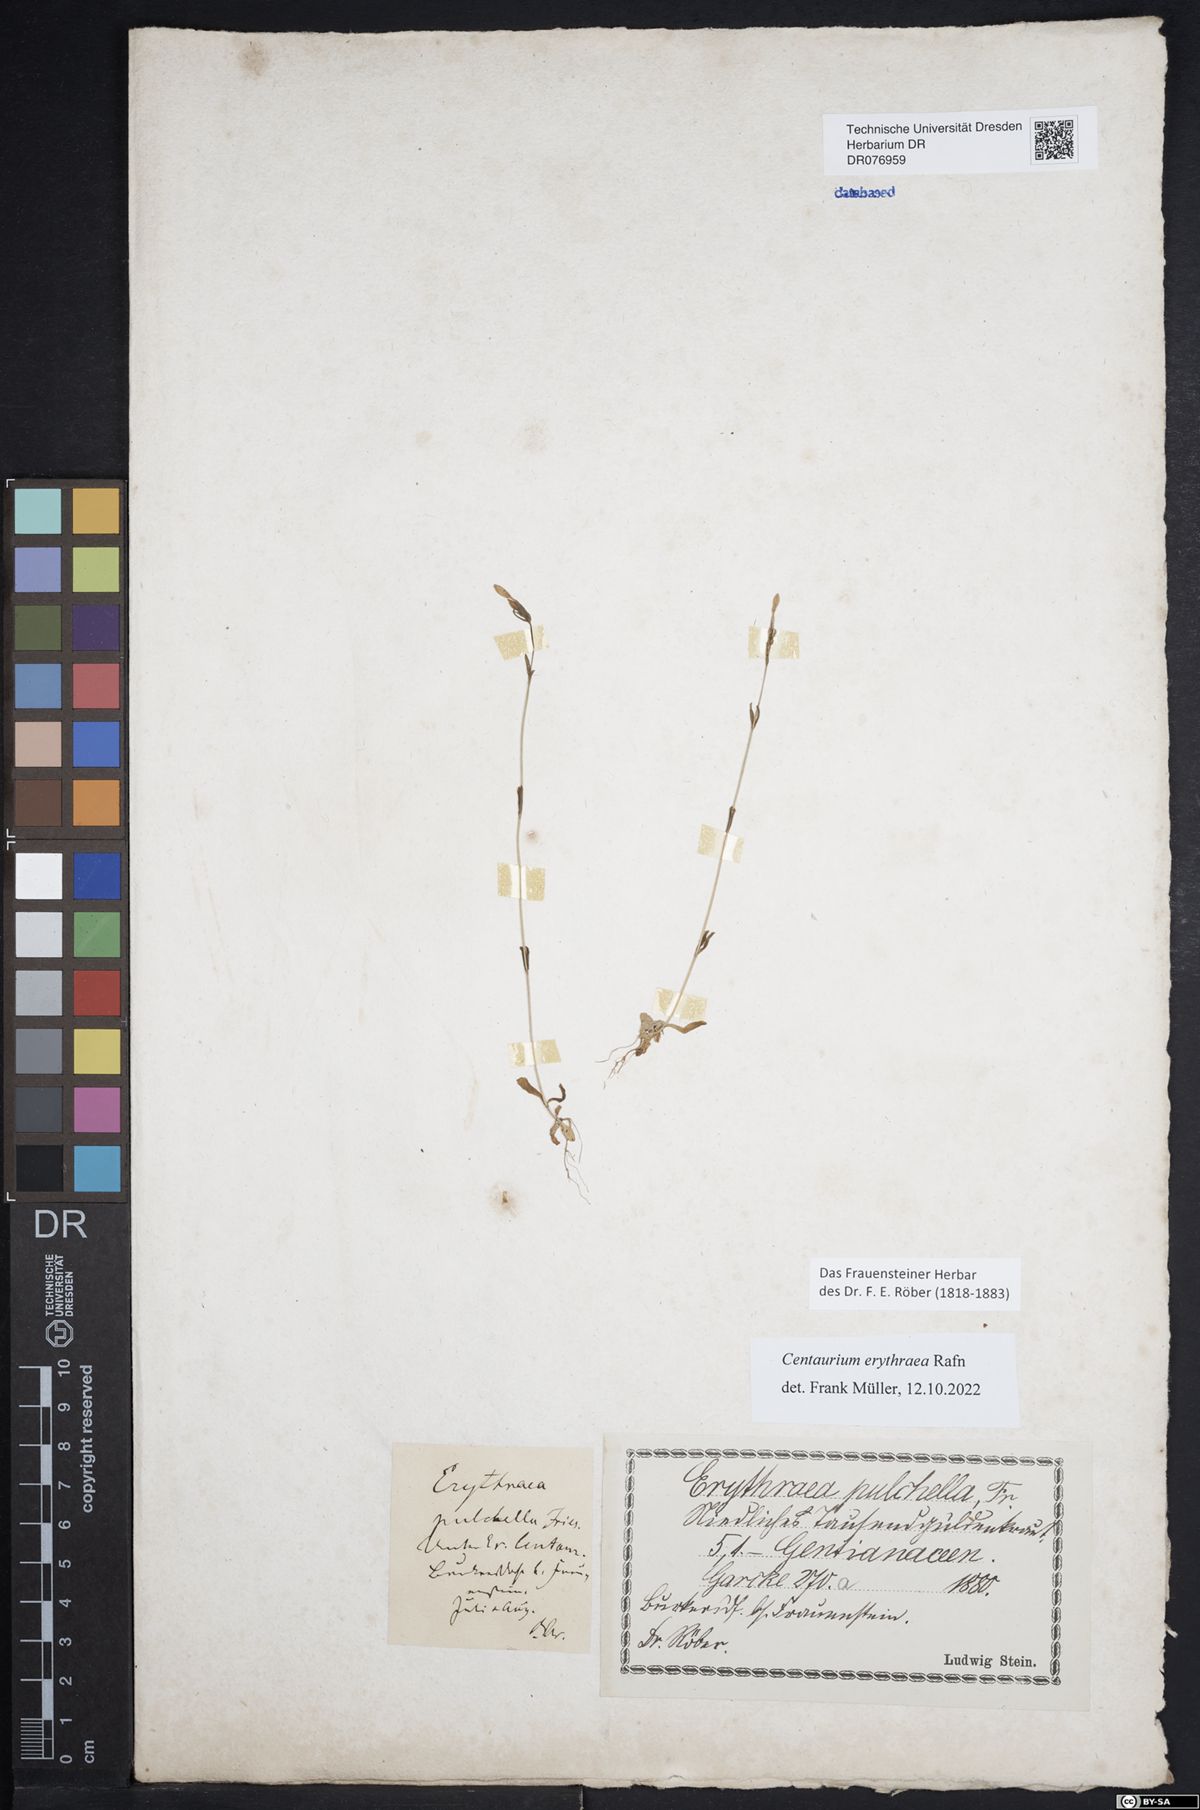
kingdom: Plantae
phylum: Tracheophyta
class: Magnoliopsida
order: Gentianales
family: Gentianaceae
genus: Centaurium
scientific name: Centaurium erythraea
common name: Common centaury
